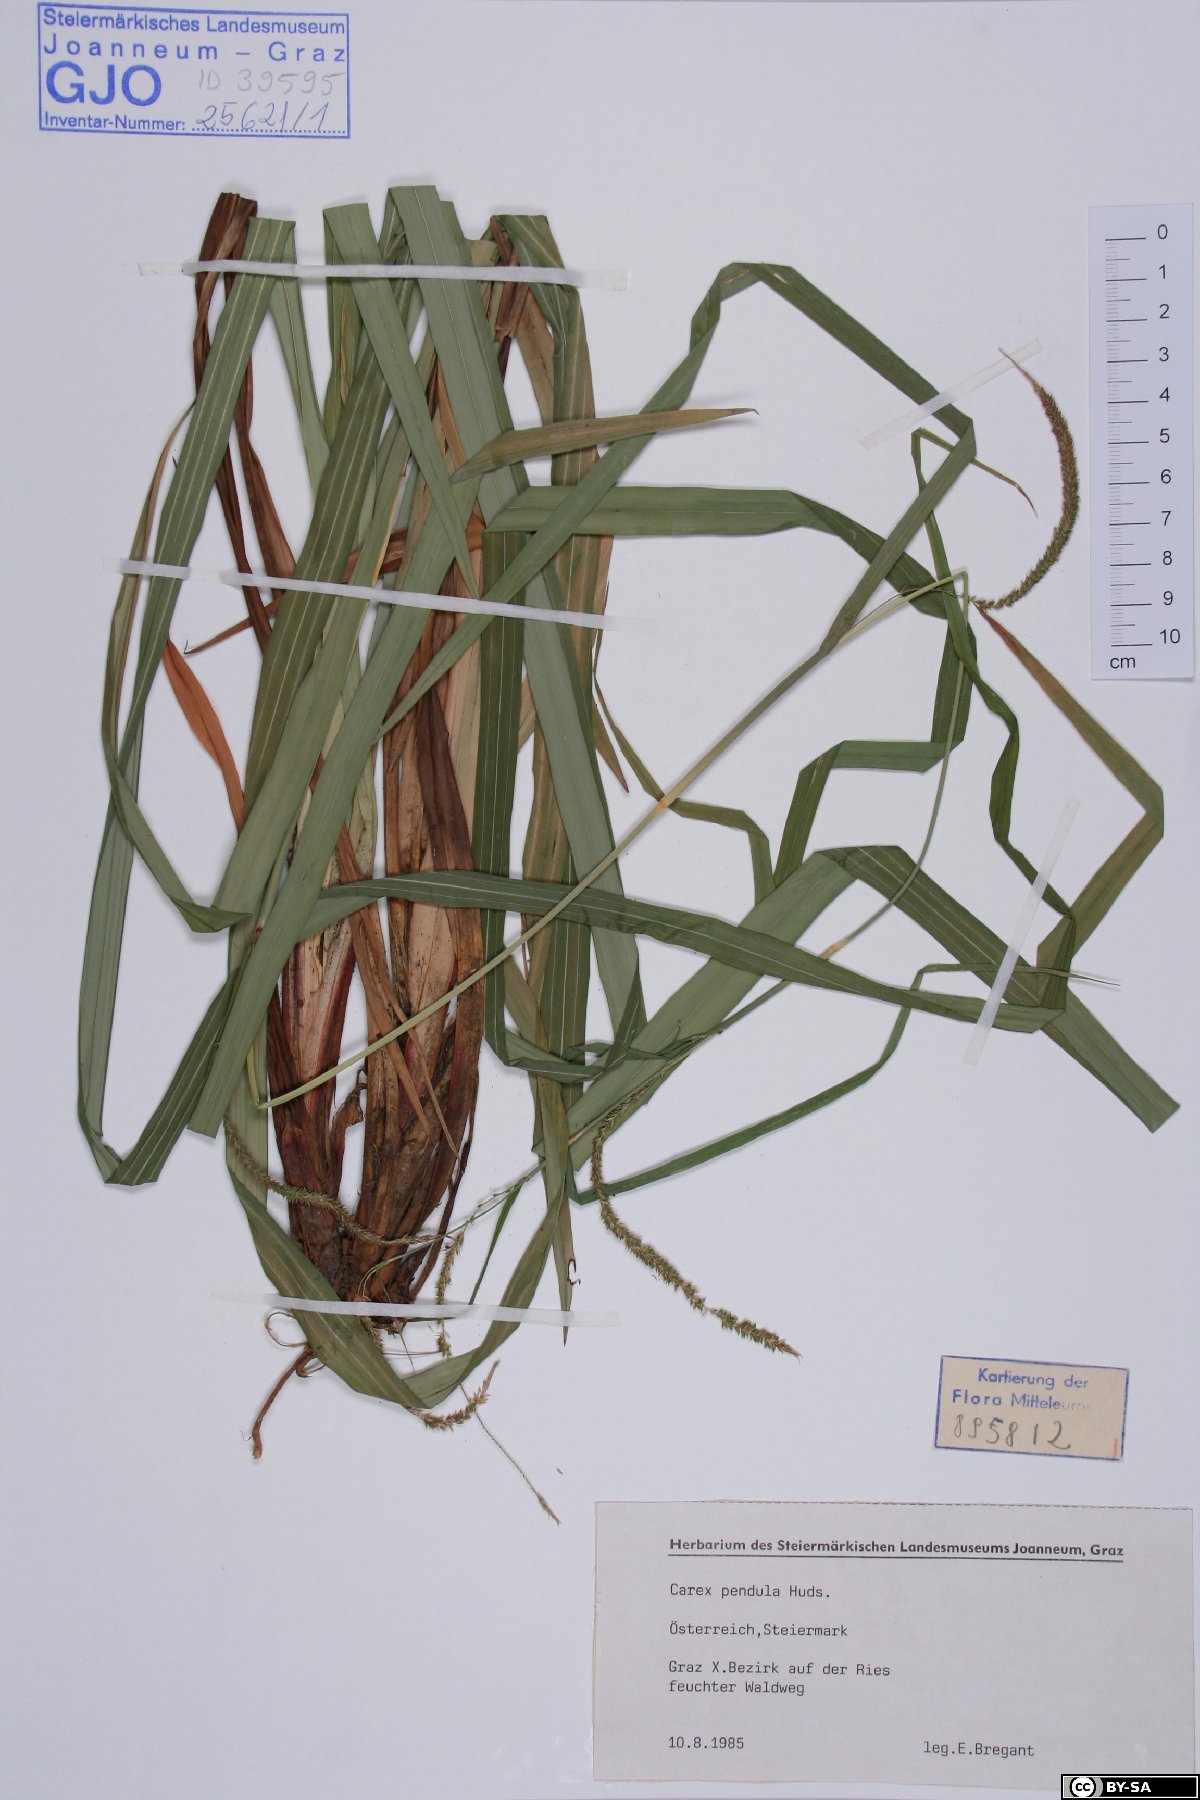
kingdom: Plantae
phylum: Tracheophyta
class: Liliopsida
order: Poales
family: Cyperaceae
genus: Carex
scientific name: Carex pendula
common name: Pendulous sedge
